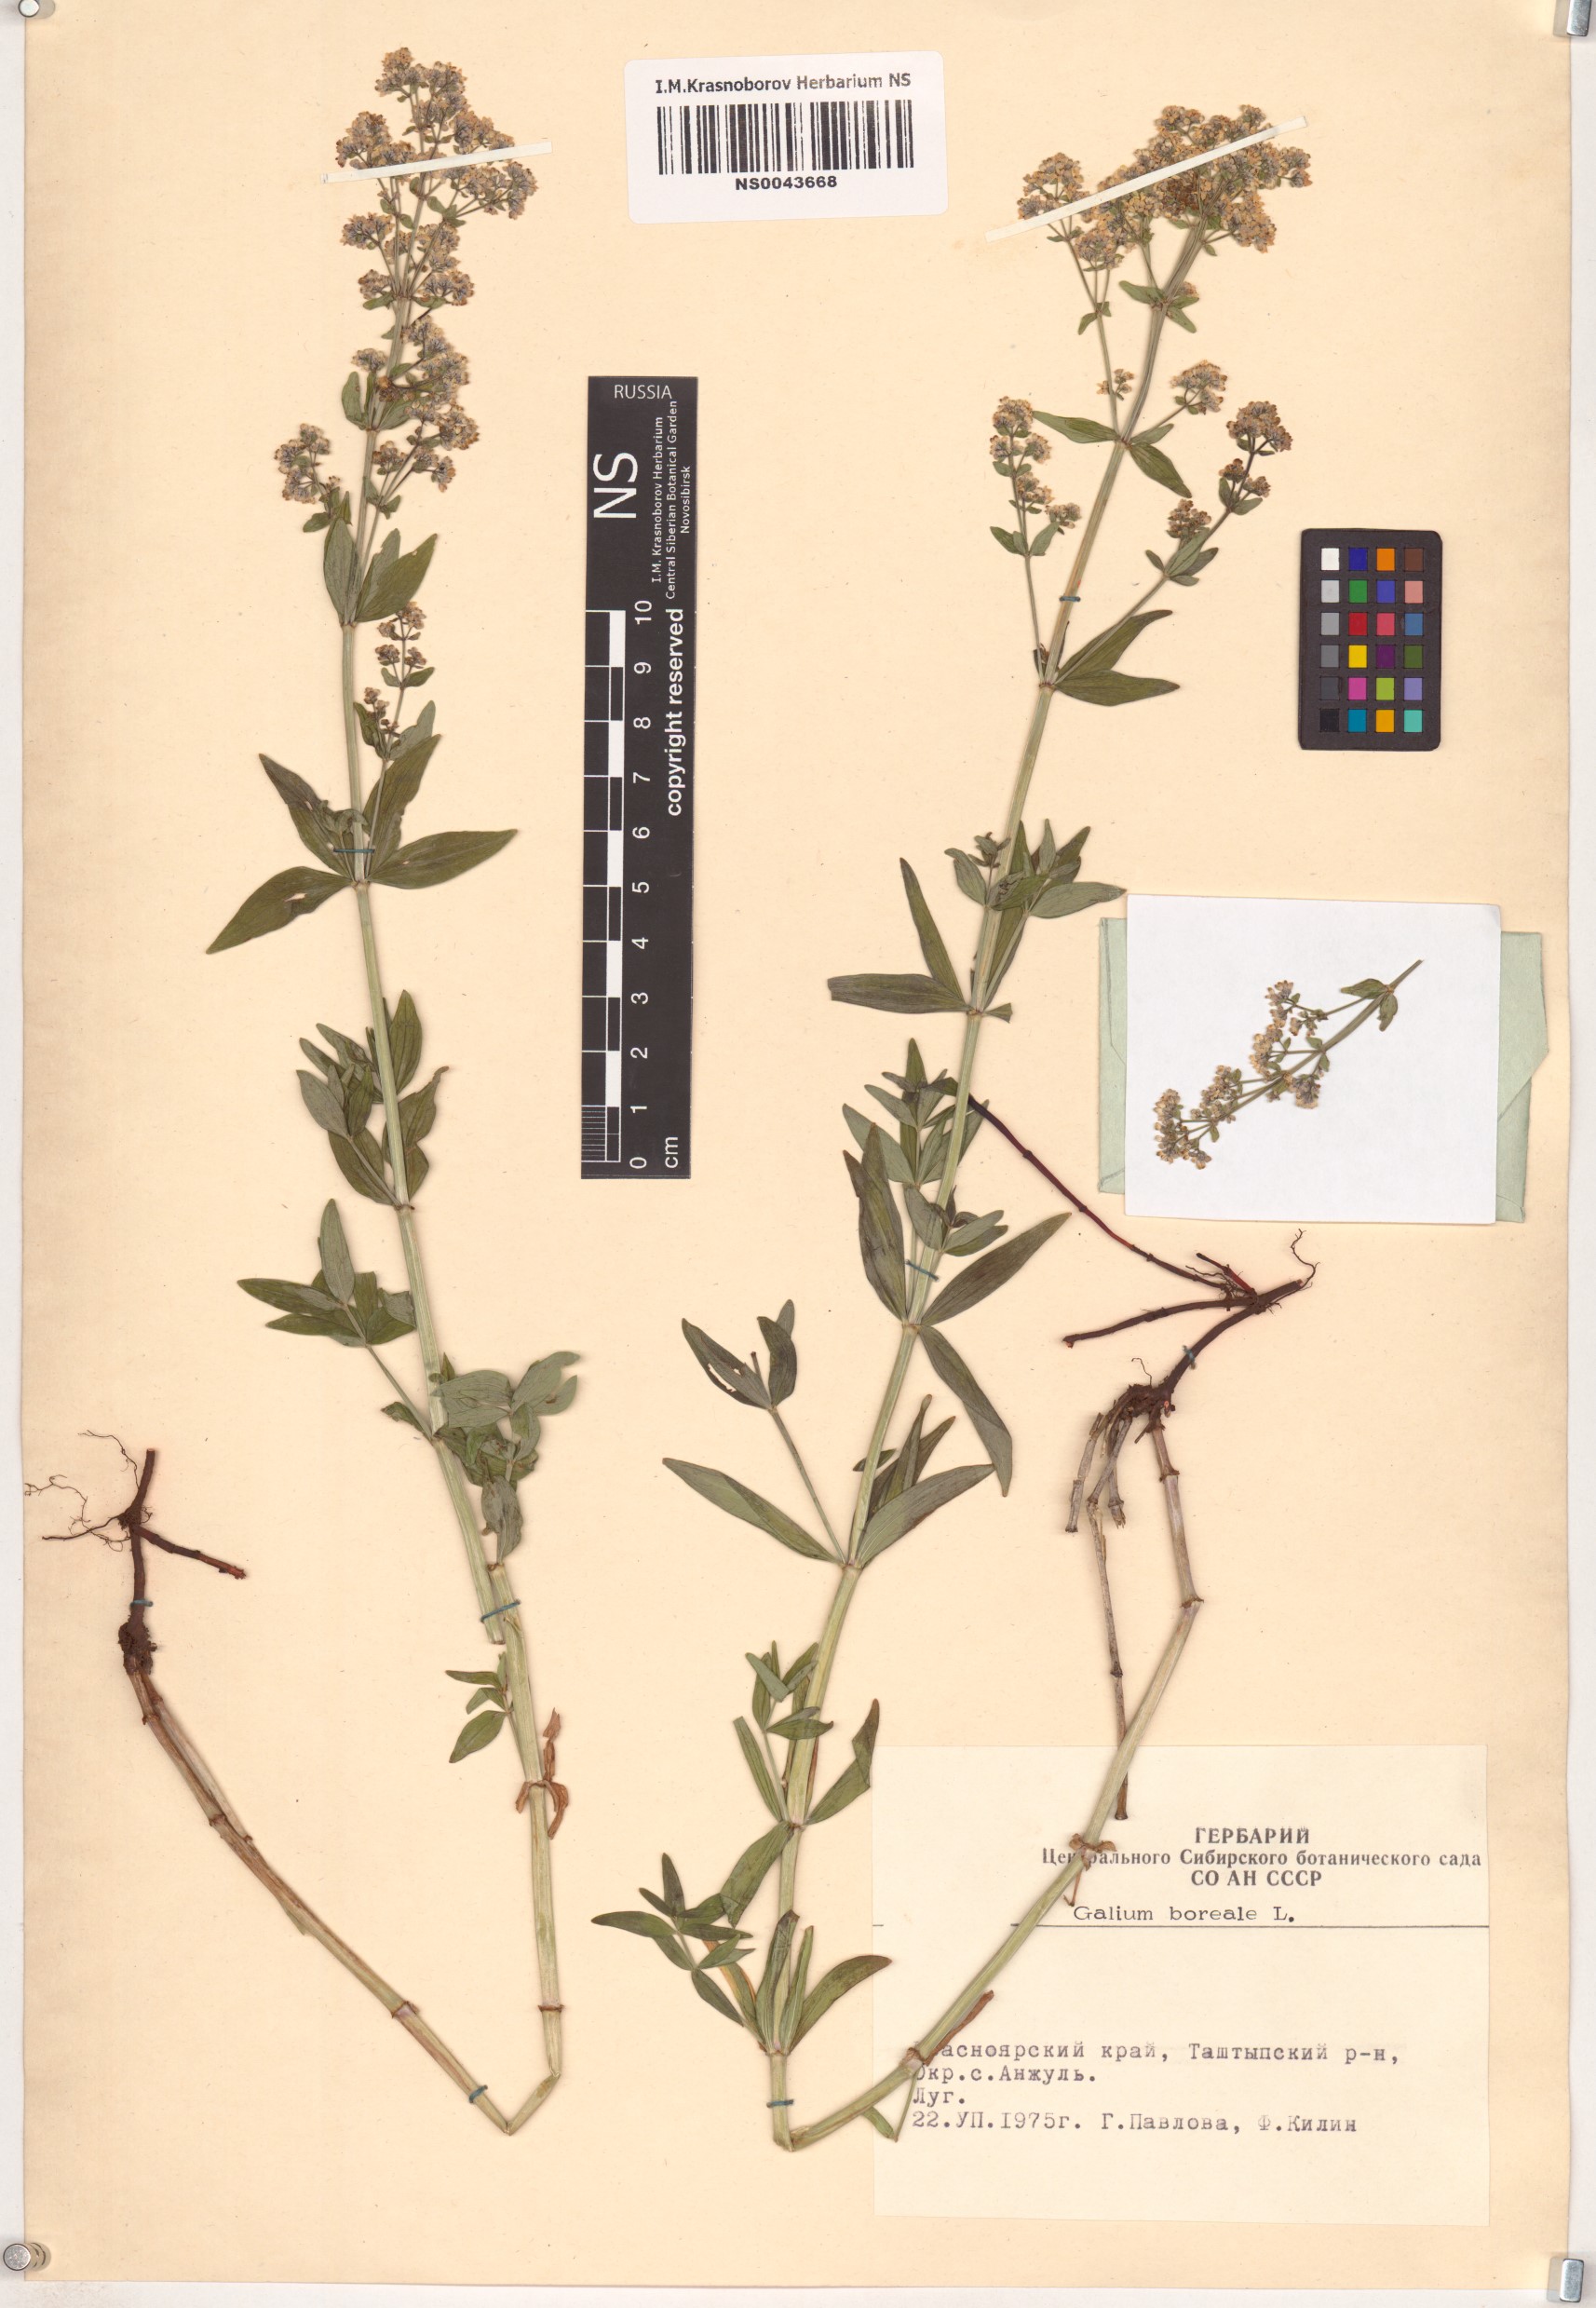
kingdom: Plantae
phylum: Tracheophyta
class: Magnoliopsida
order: Gentianales
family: Rubiaceae
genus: Galium
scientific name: Galium boreale
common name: Northern bedstraw
